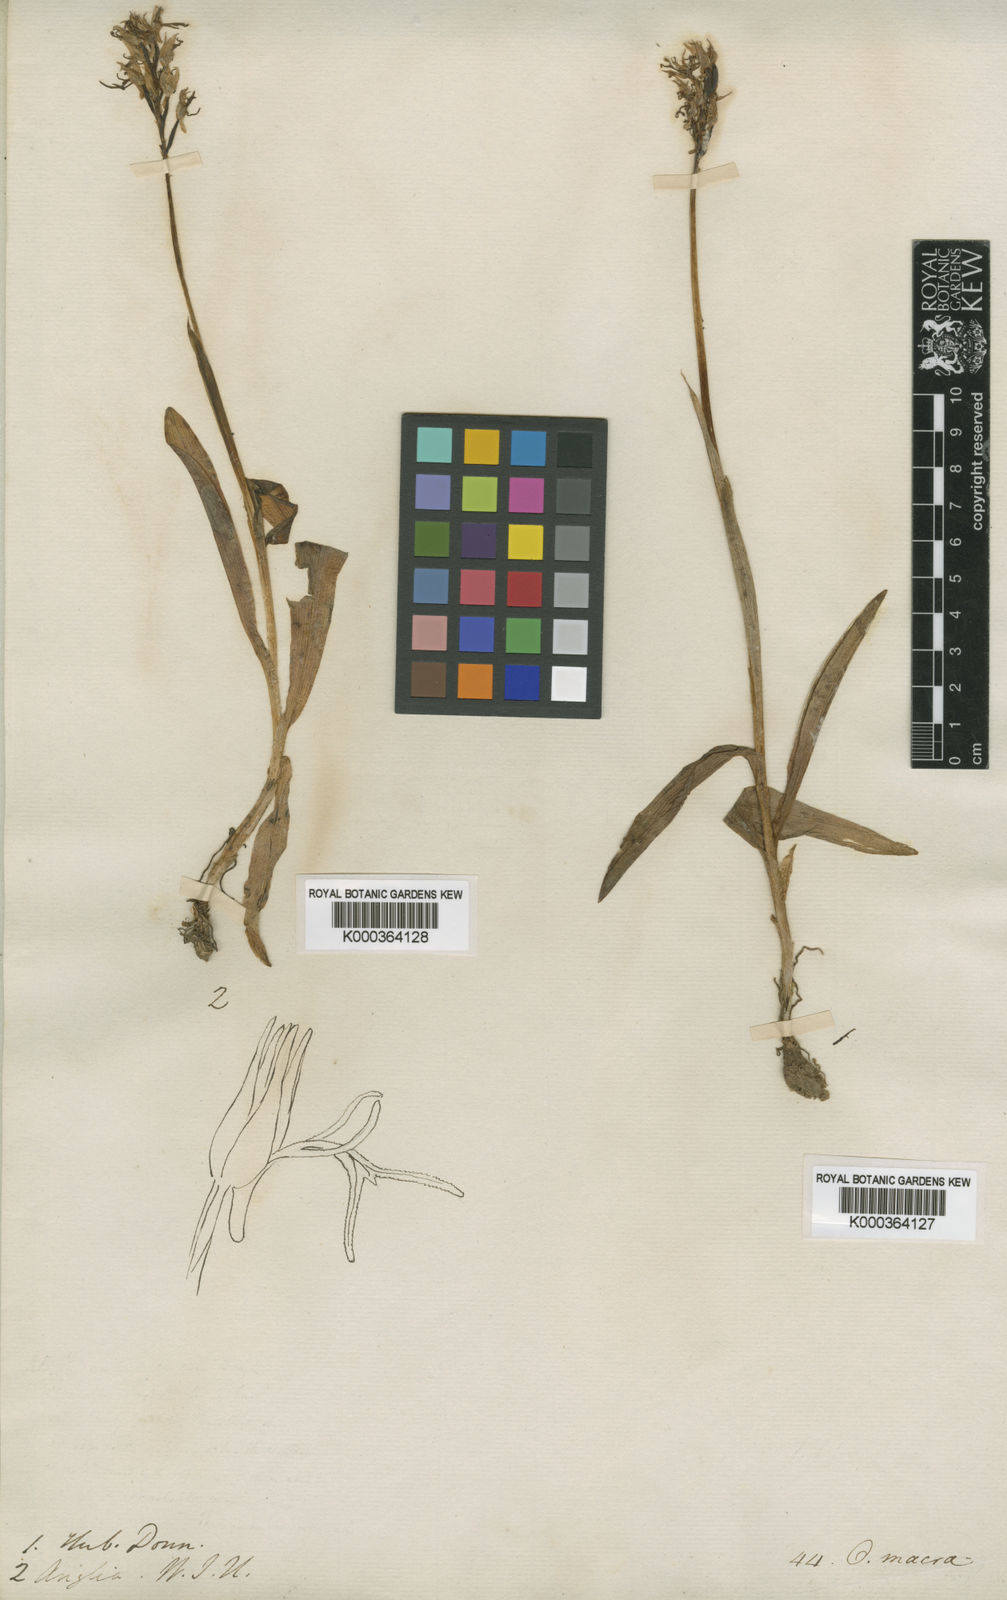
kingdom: Plantae
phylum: Tracheophyta
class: Liliopsida
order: Asparagales
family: Orchidaceae
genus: Orchis
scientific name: Orchis macra
